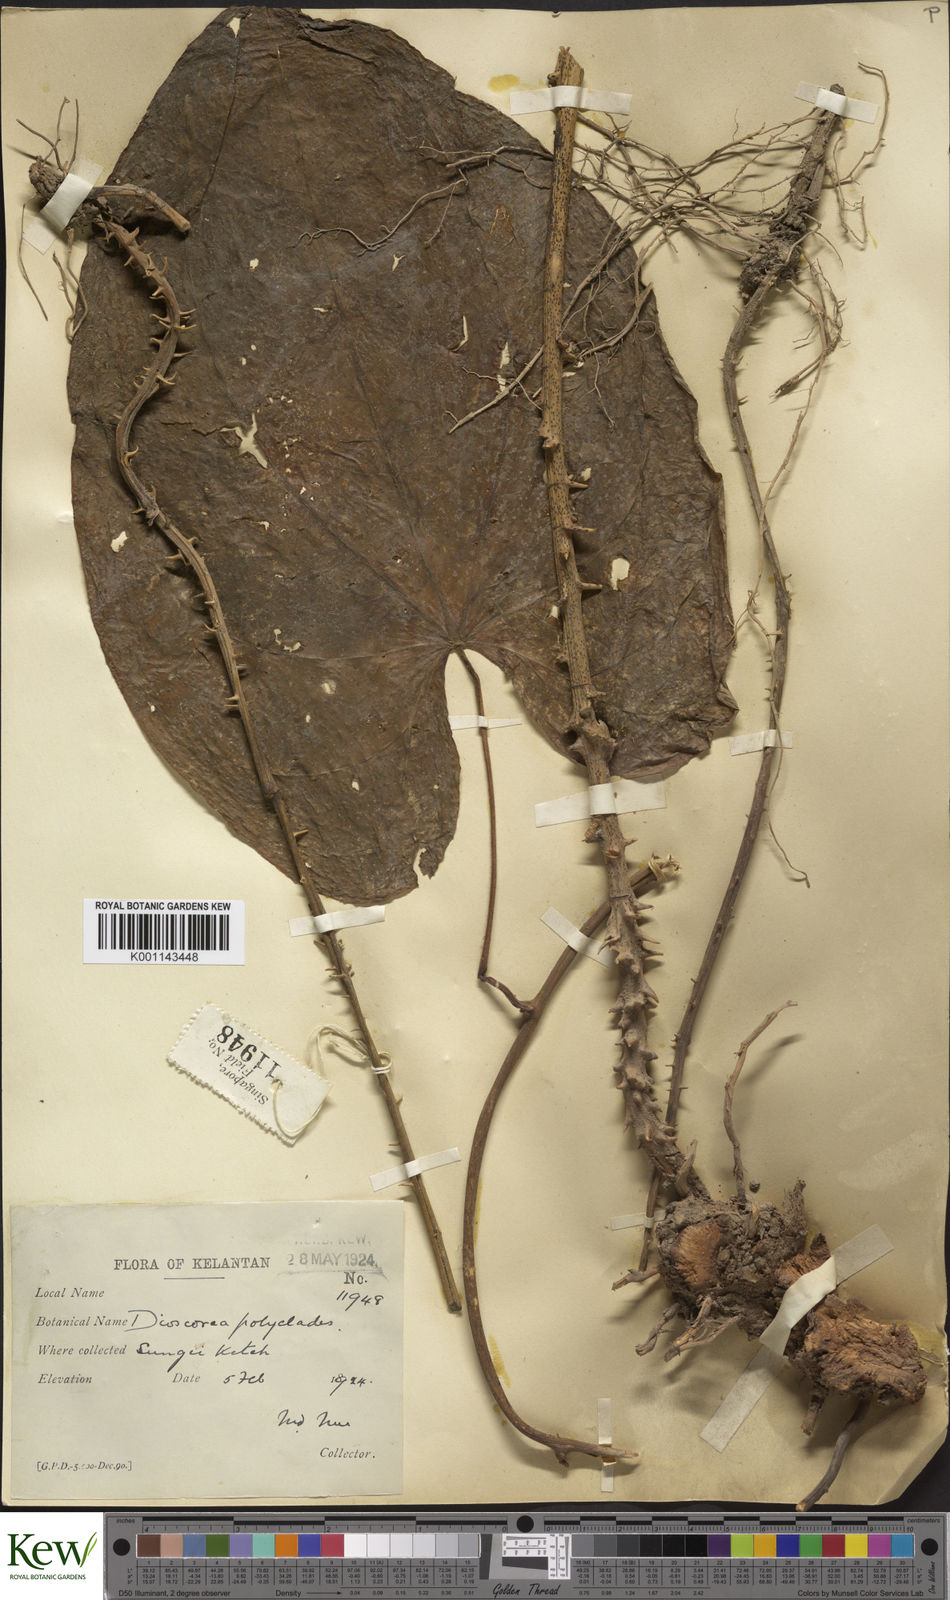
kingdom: Plantae
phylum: Tracheophyta
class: Liliopsida
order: Dioscoreales
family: Dioscoreaceae
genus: Dioscorea
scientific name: Dioscorea polyclados
